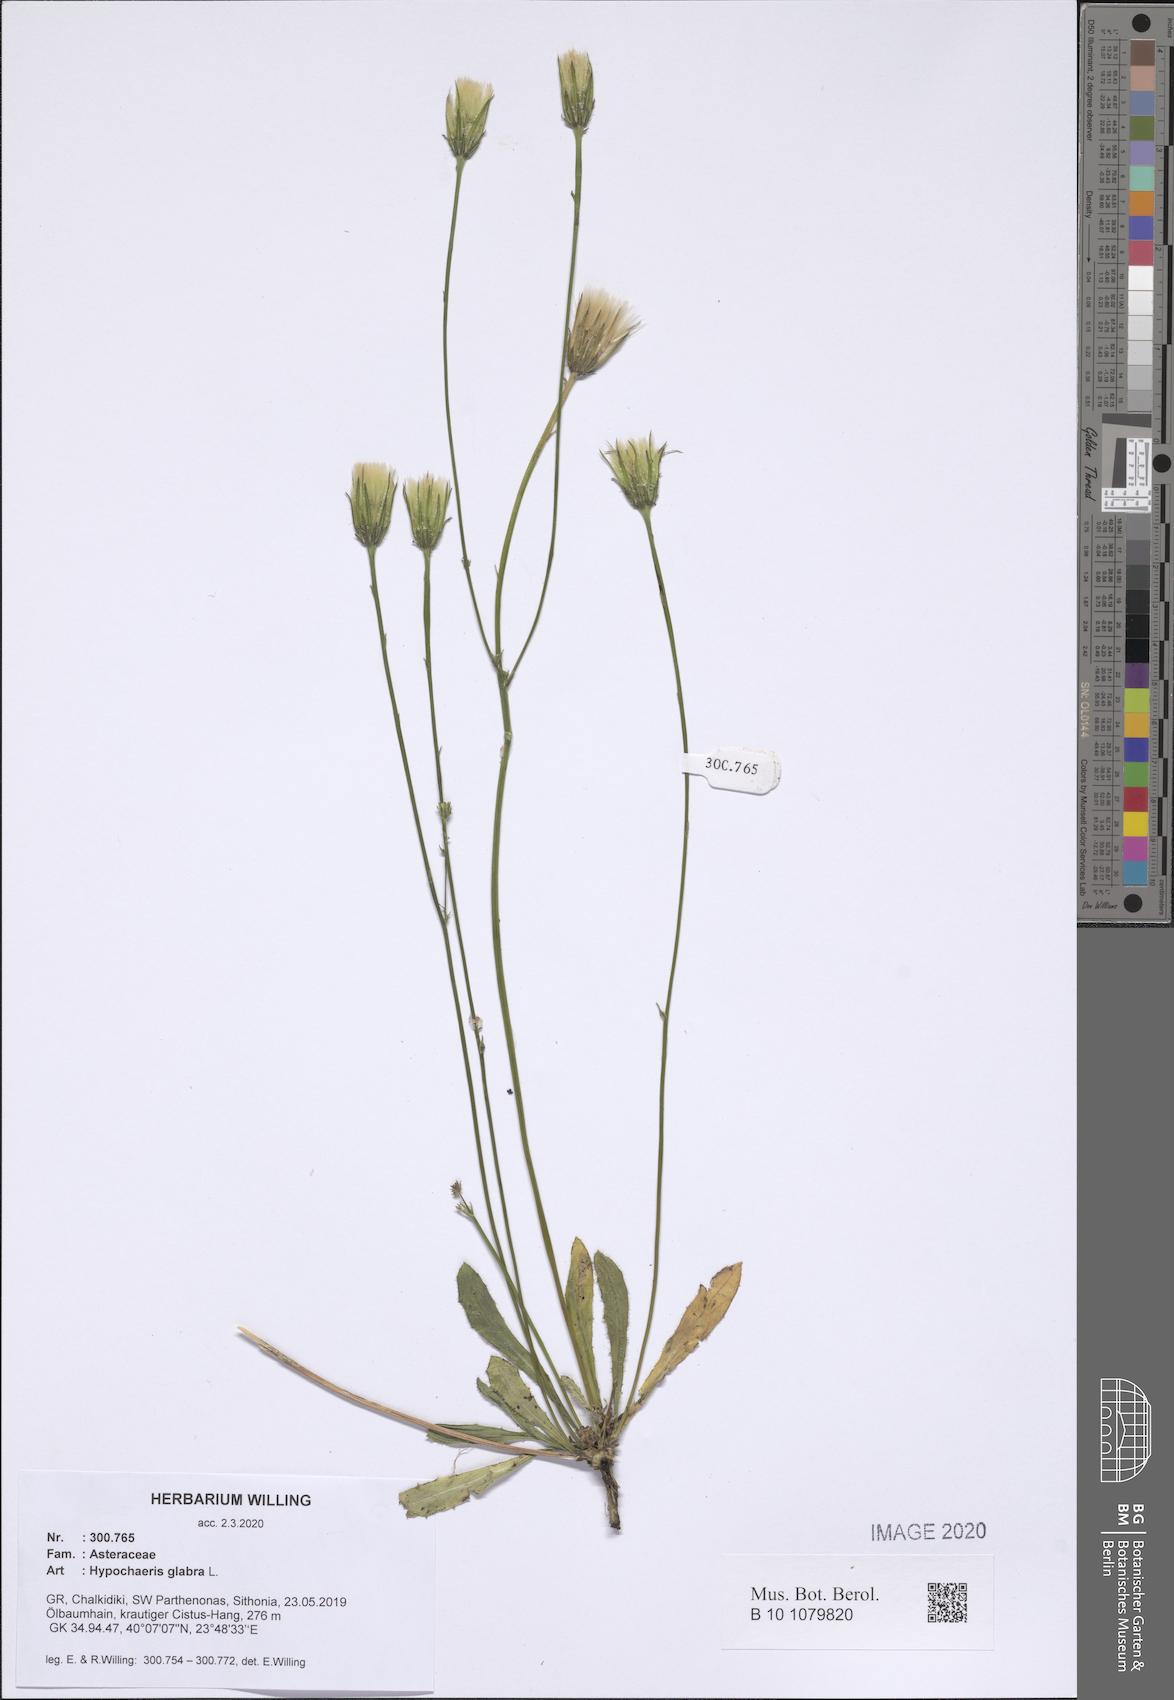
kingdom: Plantae
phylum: Tracheophyta
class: Magnoliopsida
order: Asterales
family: Asteraceae
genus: Hypochaeris
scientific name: Hypochaeris glabra
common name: Smooth catsear
